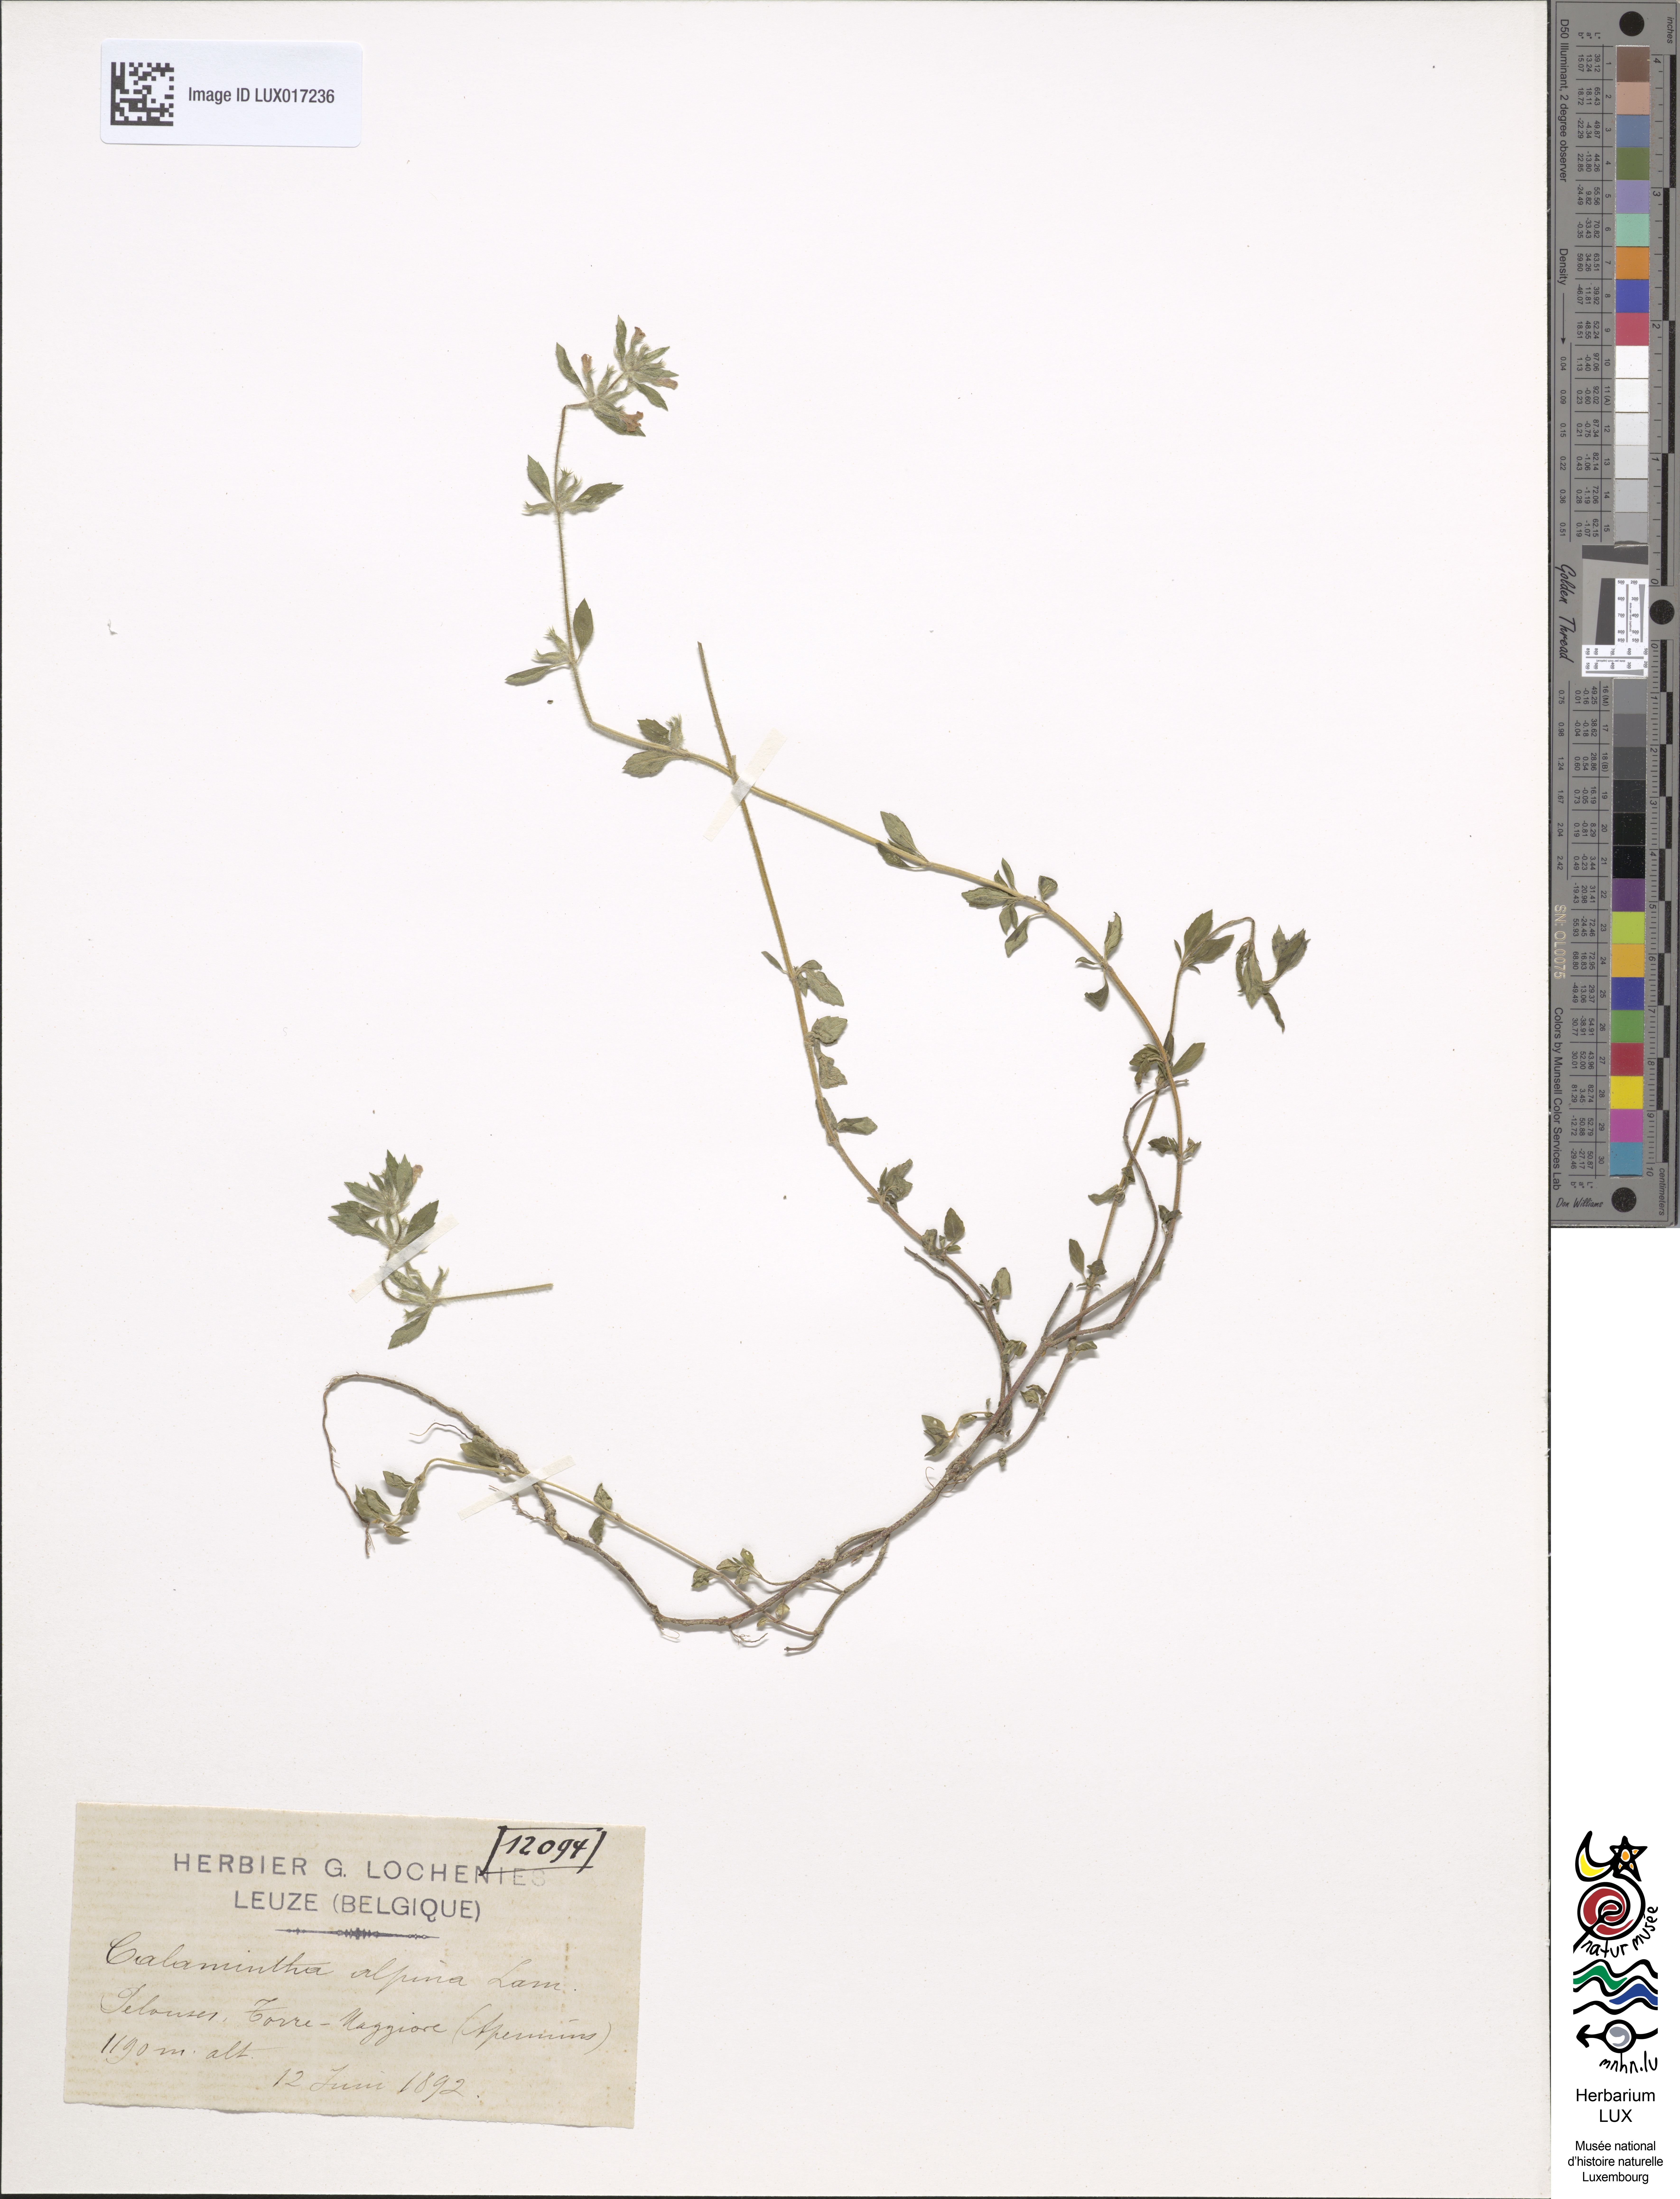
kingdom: Plantae
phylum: Tracheophyta
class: Magnoliopsida
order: Lamiales
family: Lamiaceae
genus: Clinopodium
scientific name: Clinopodium alpinum
